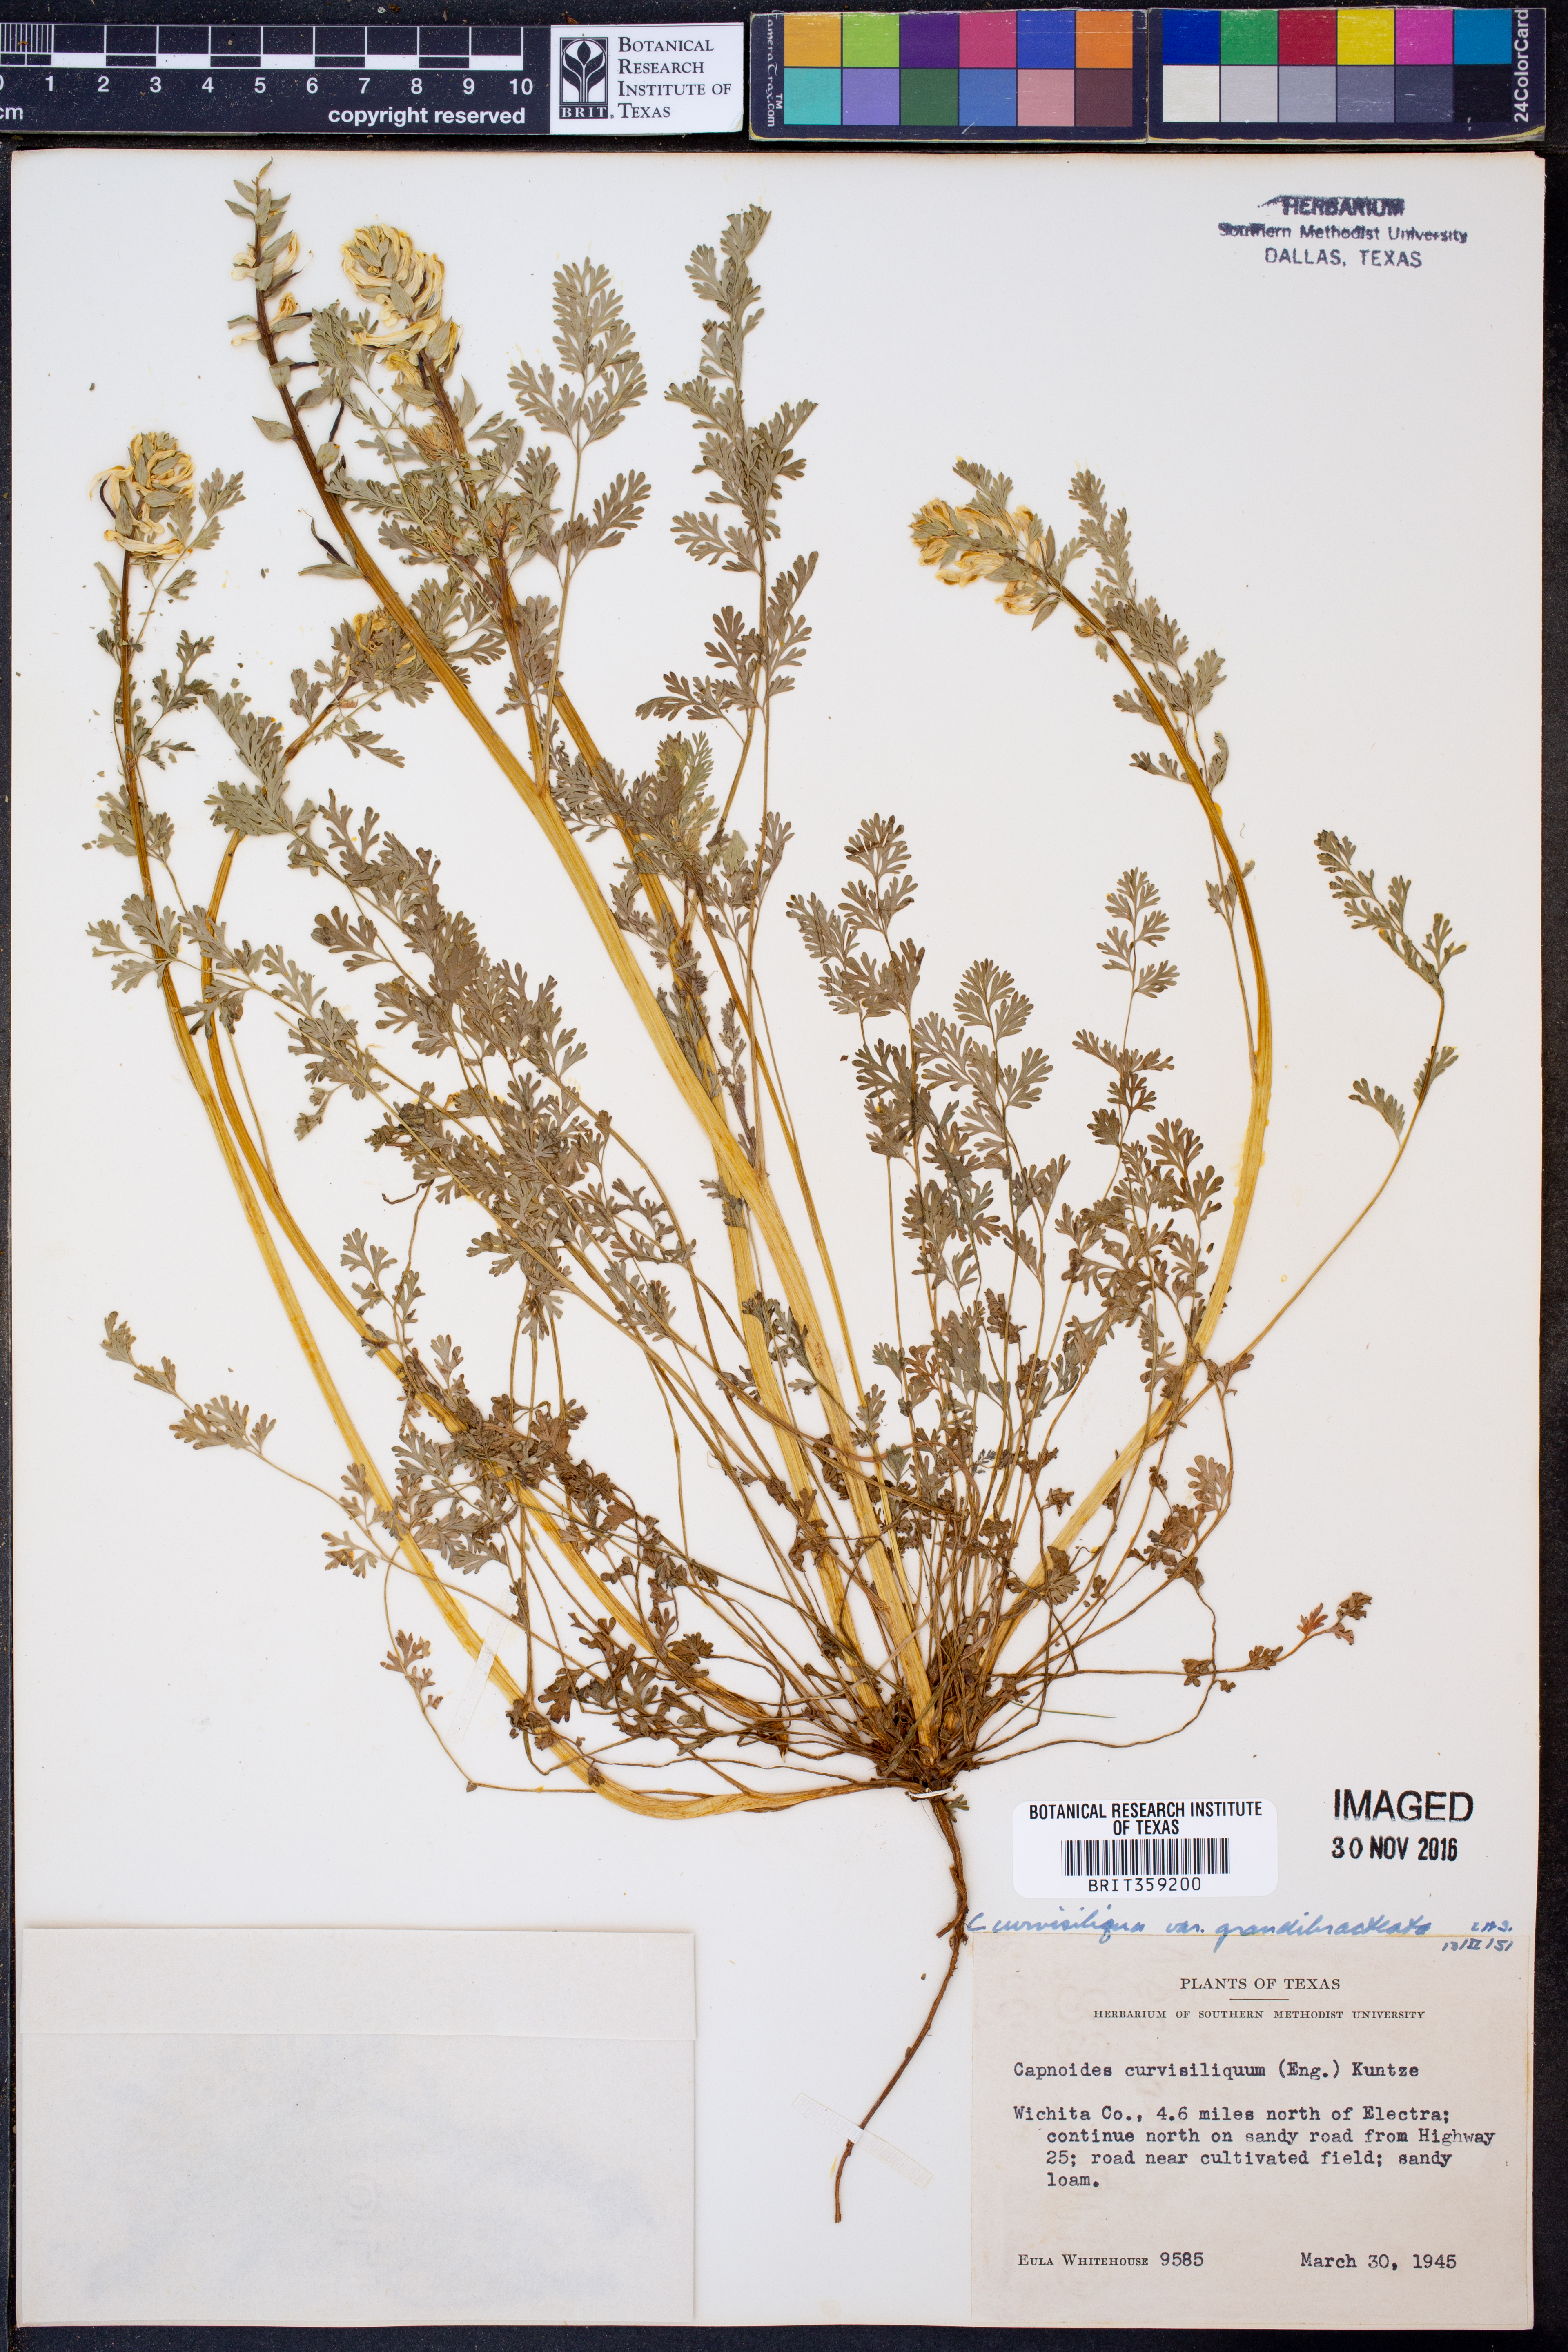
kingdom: Plantae
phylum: Tracheophyta
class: Magnoliopsida
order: Ranunculales
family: Papaveraceae
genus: Corydalis
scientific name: Corydalis curvisiliqua
